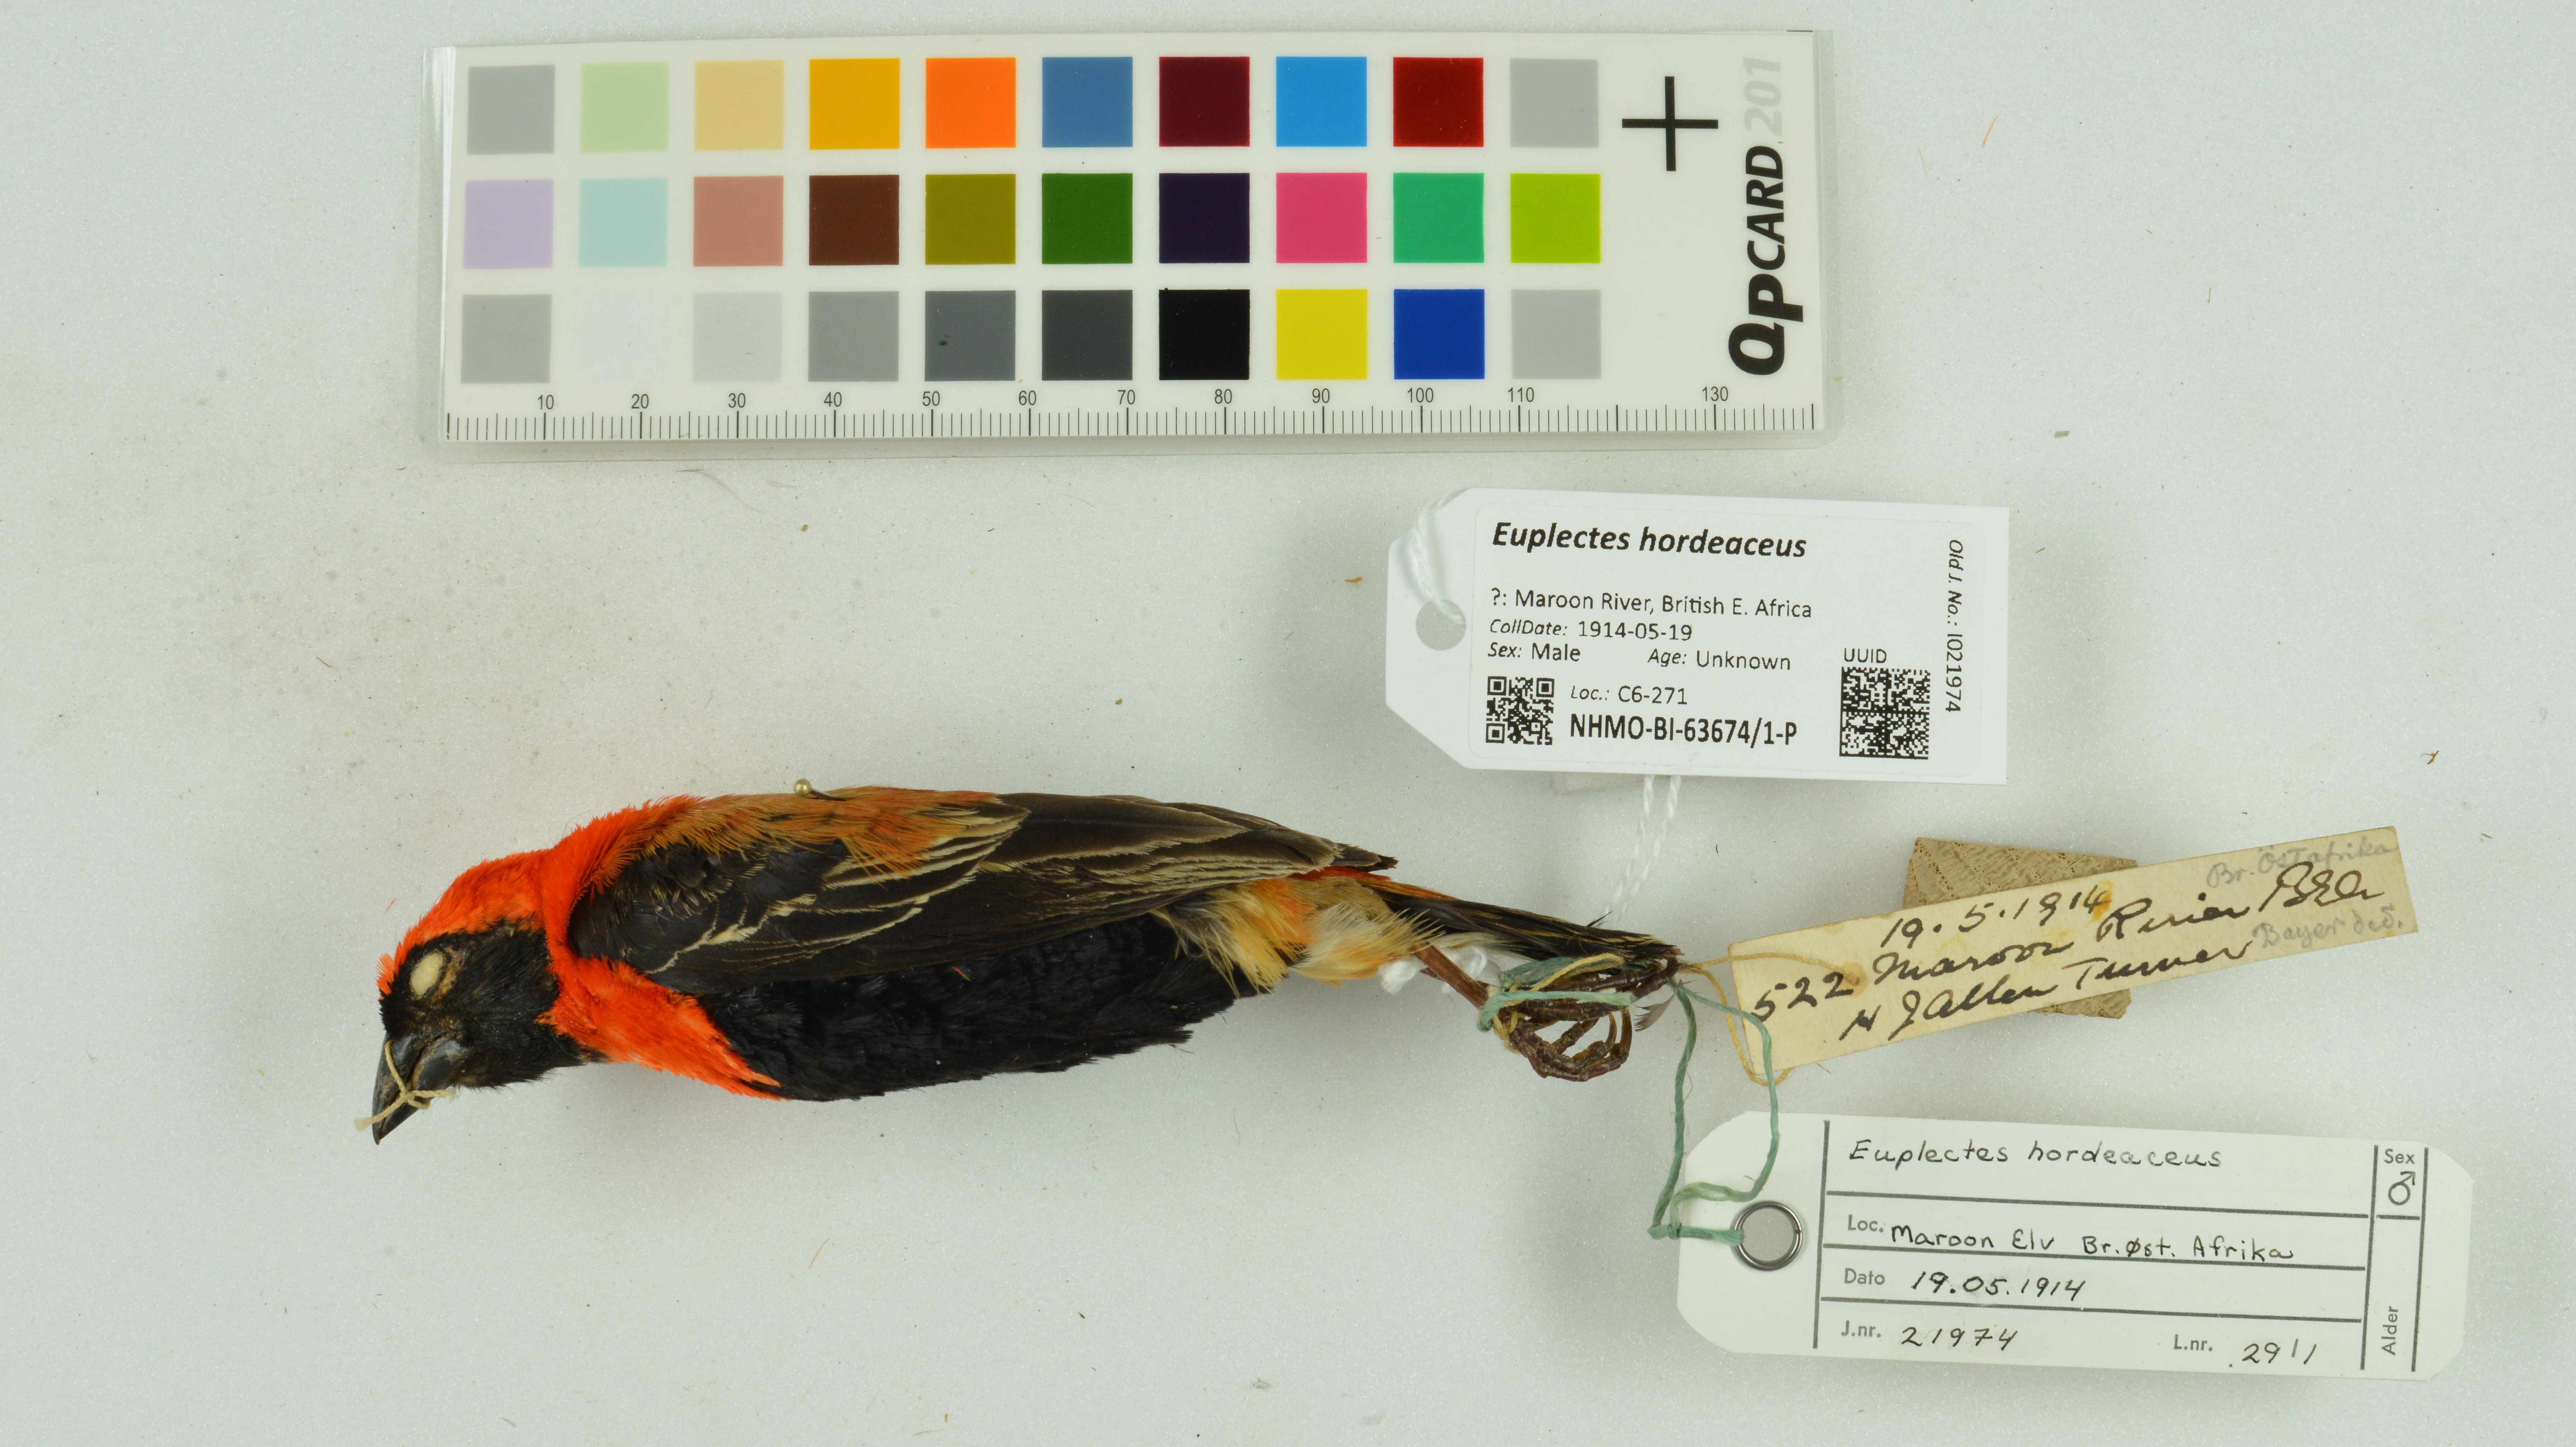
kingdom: Animalia
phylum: Chordata
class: Aves
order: Passeriformes
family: Ploceidae
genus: Euplectes
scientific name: Euplectes hordeaceus
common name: Black-winged red bishop
